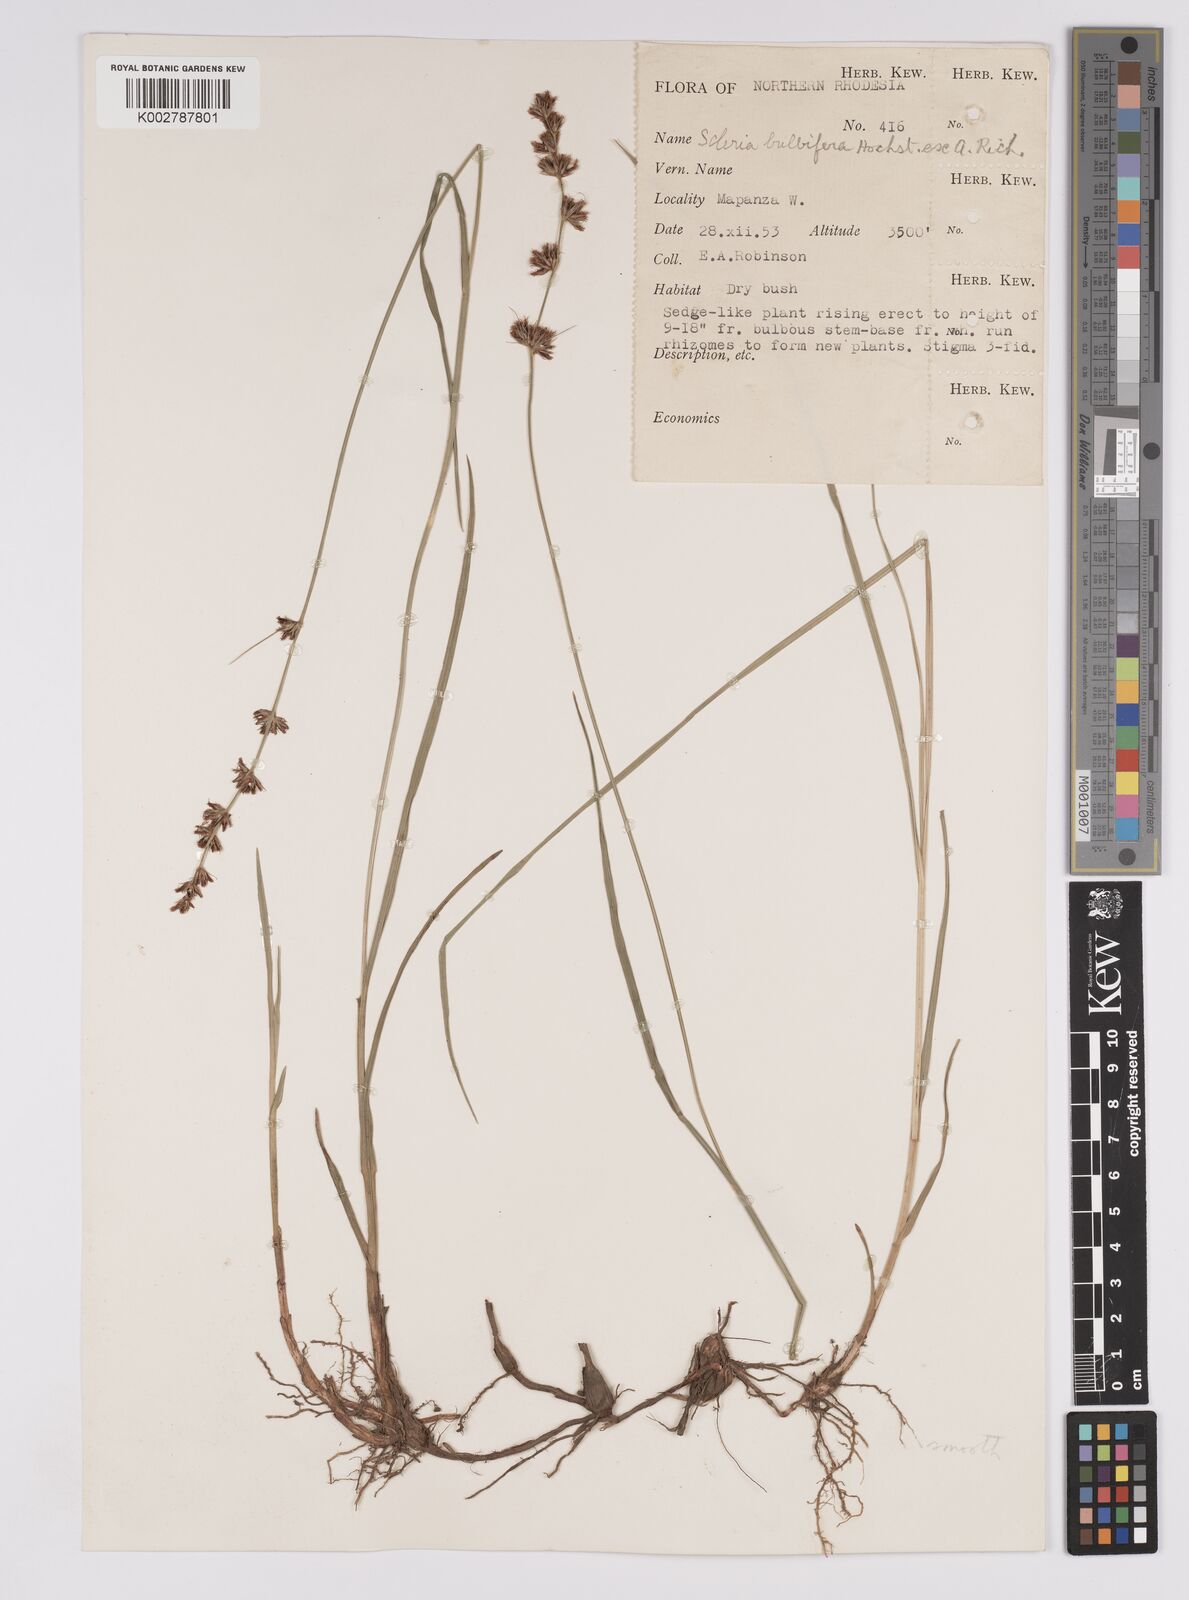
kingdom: Plantae
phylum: Tracheophyta
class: Liliopsida
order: Poales
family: Cyperaceae
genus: Scleria
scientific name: Scleria bulbifera
